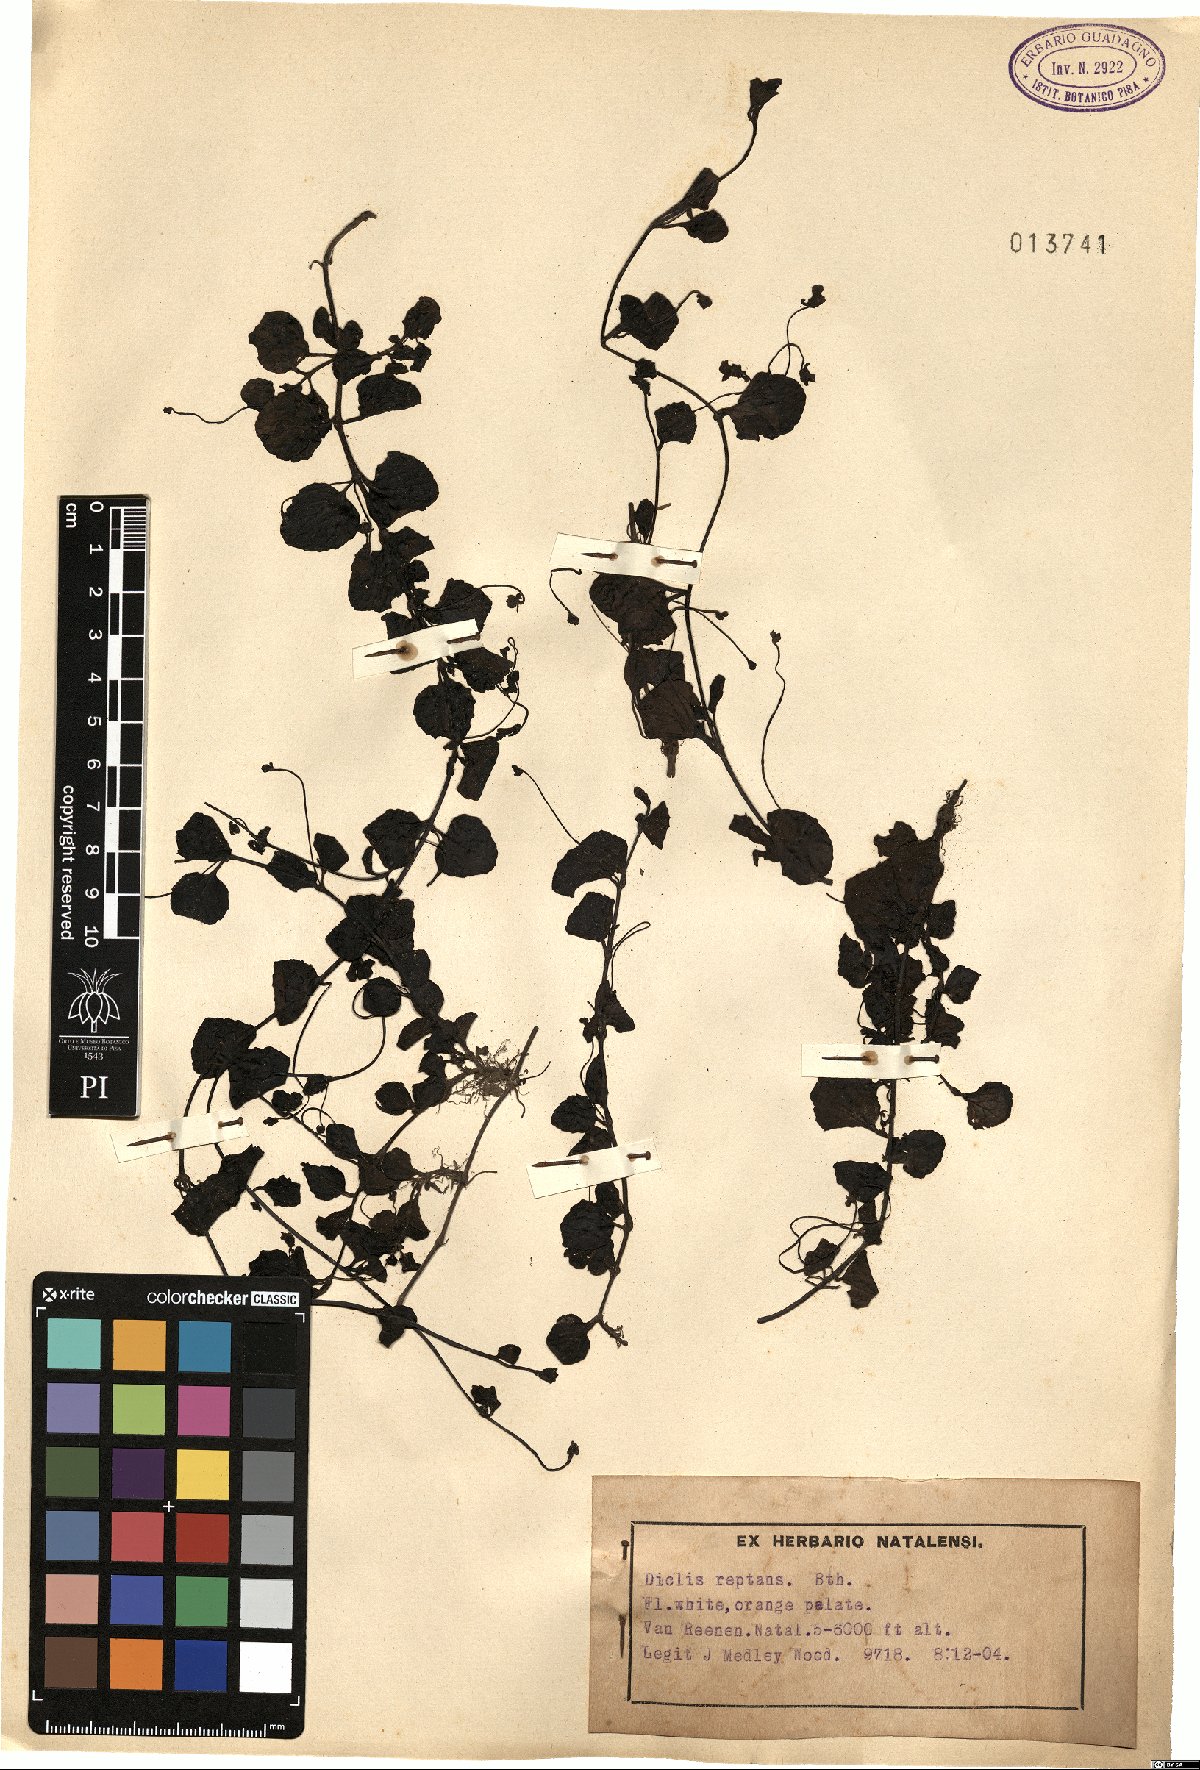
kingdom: Plantae
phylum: Tracheophyta
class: Magnoliopsida
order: Lamiales
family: Scrophulariaceae
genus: Diclis
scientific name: Diclis reptans
